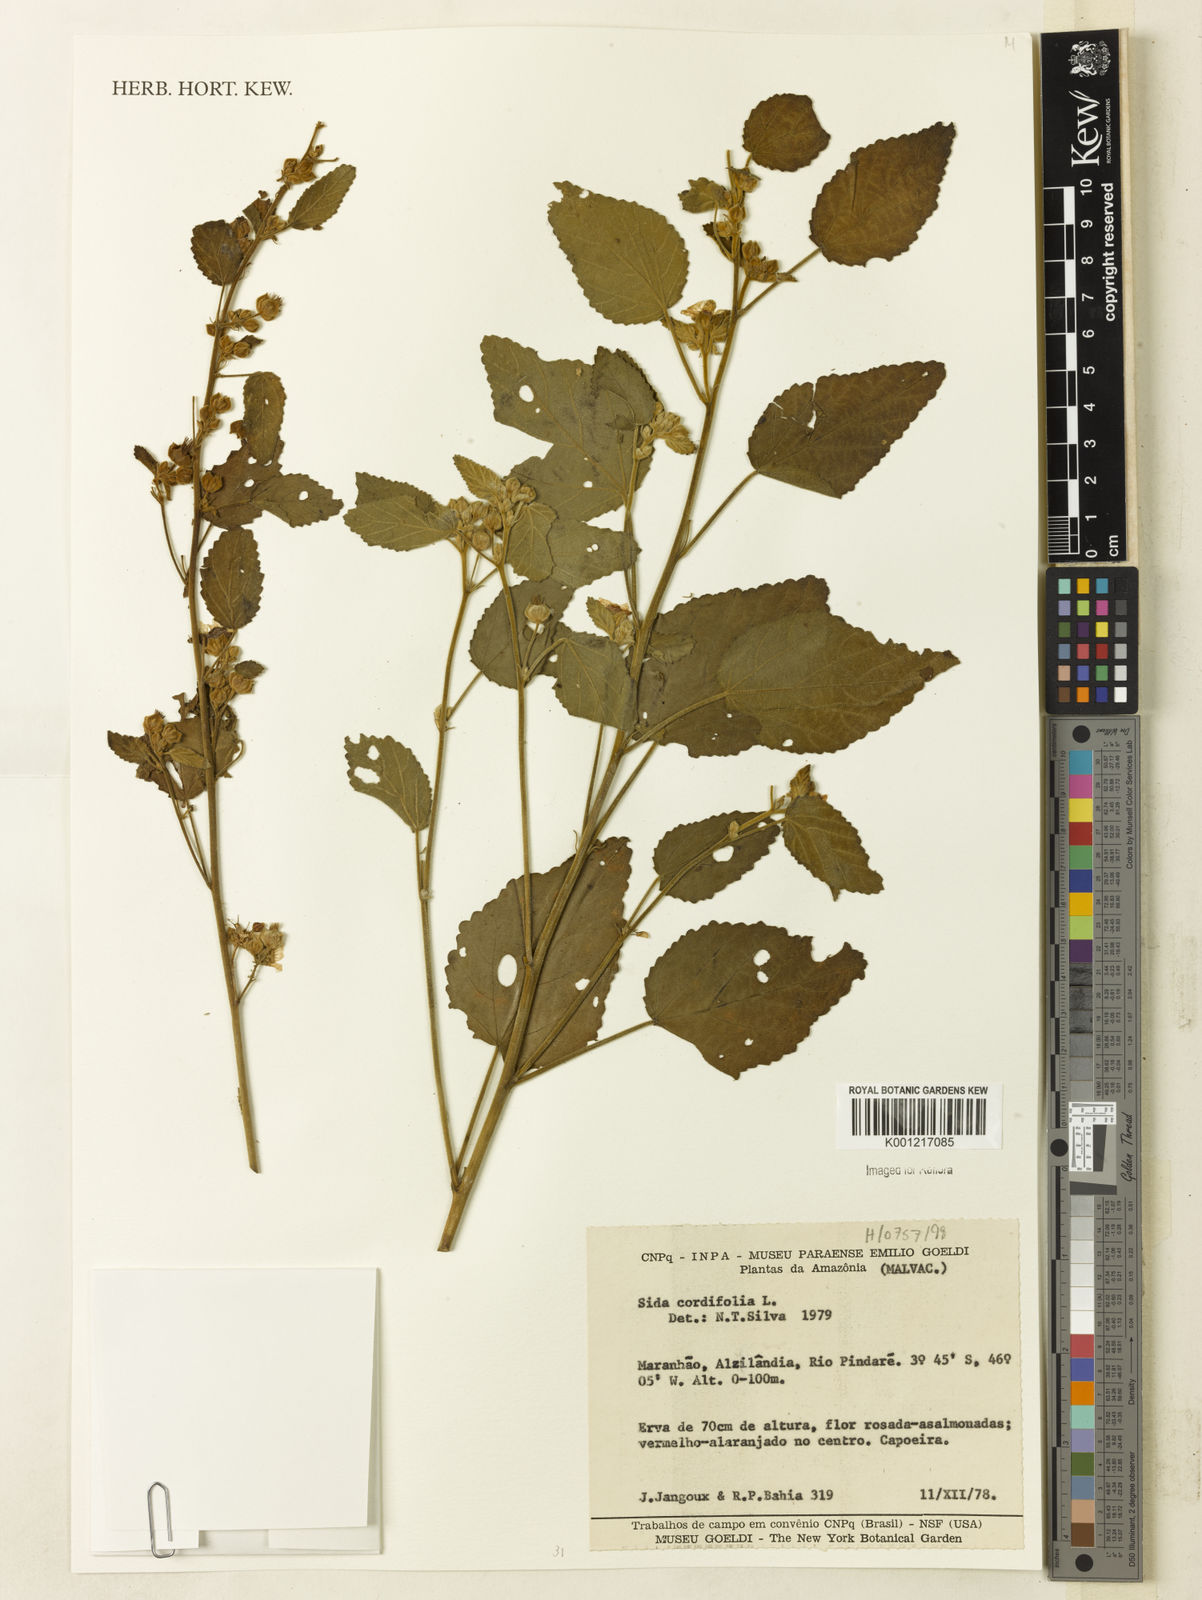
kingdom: Plantae
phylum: Tracheophyta
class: Magnoliopsida
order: Malvales
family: Malvaceae
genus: Sida
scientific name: Sida cordifolia
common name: Ilima
